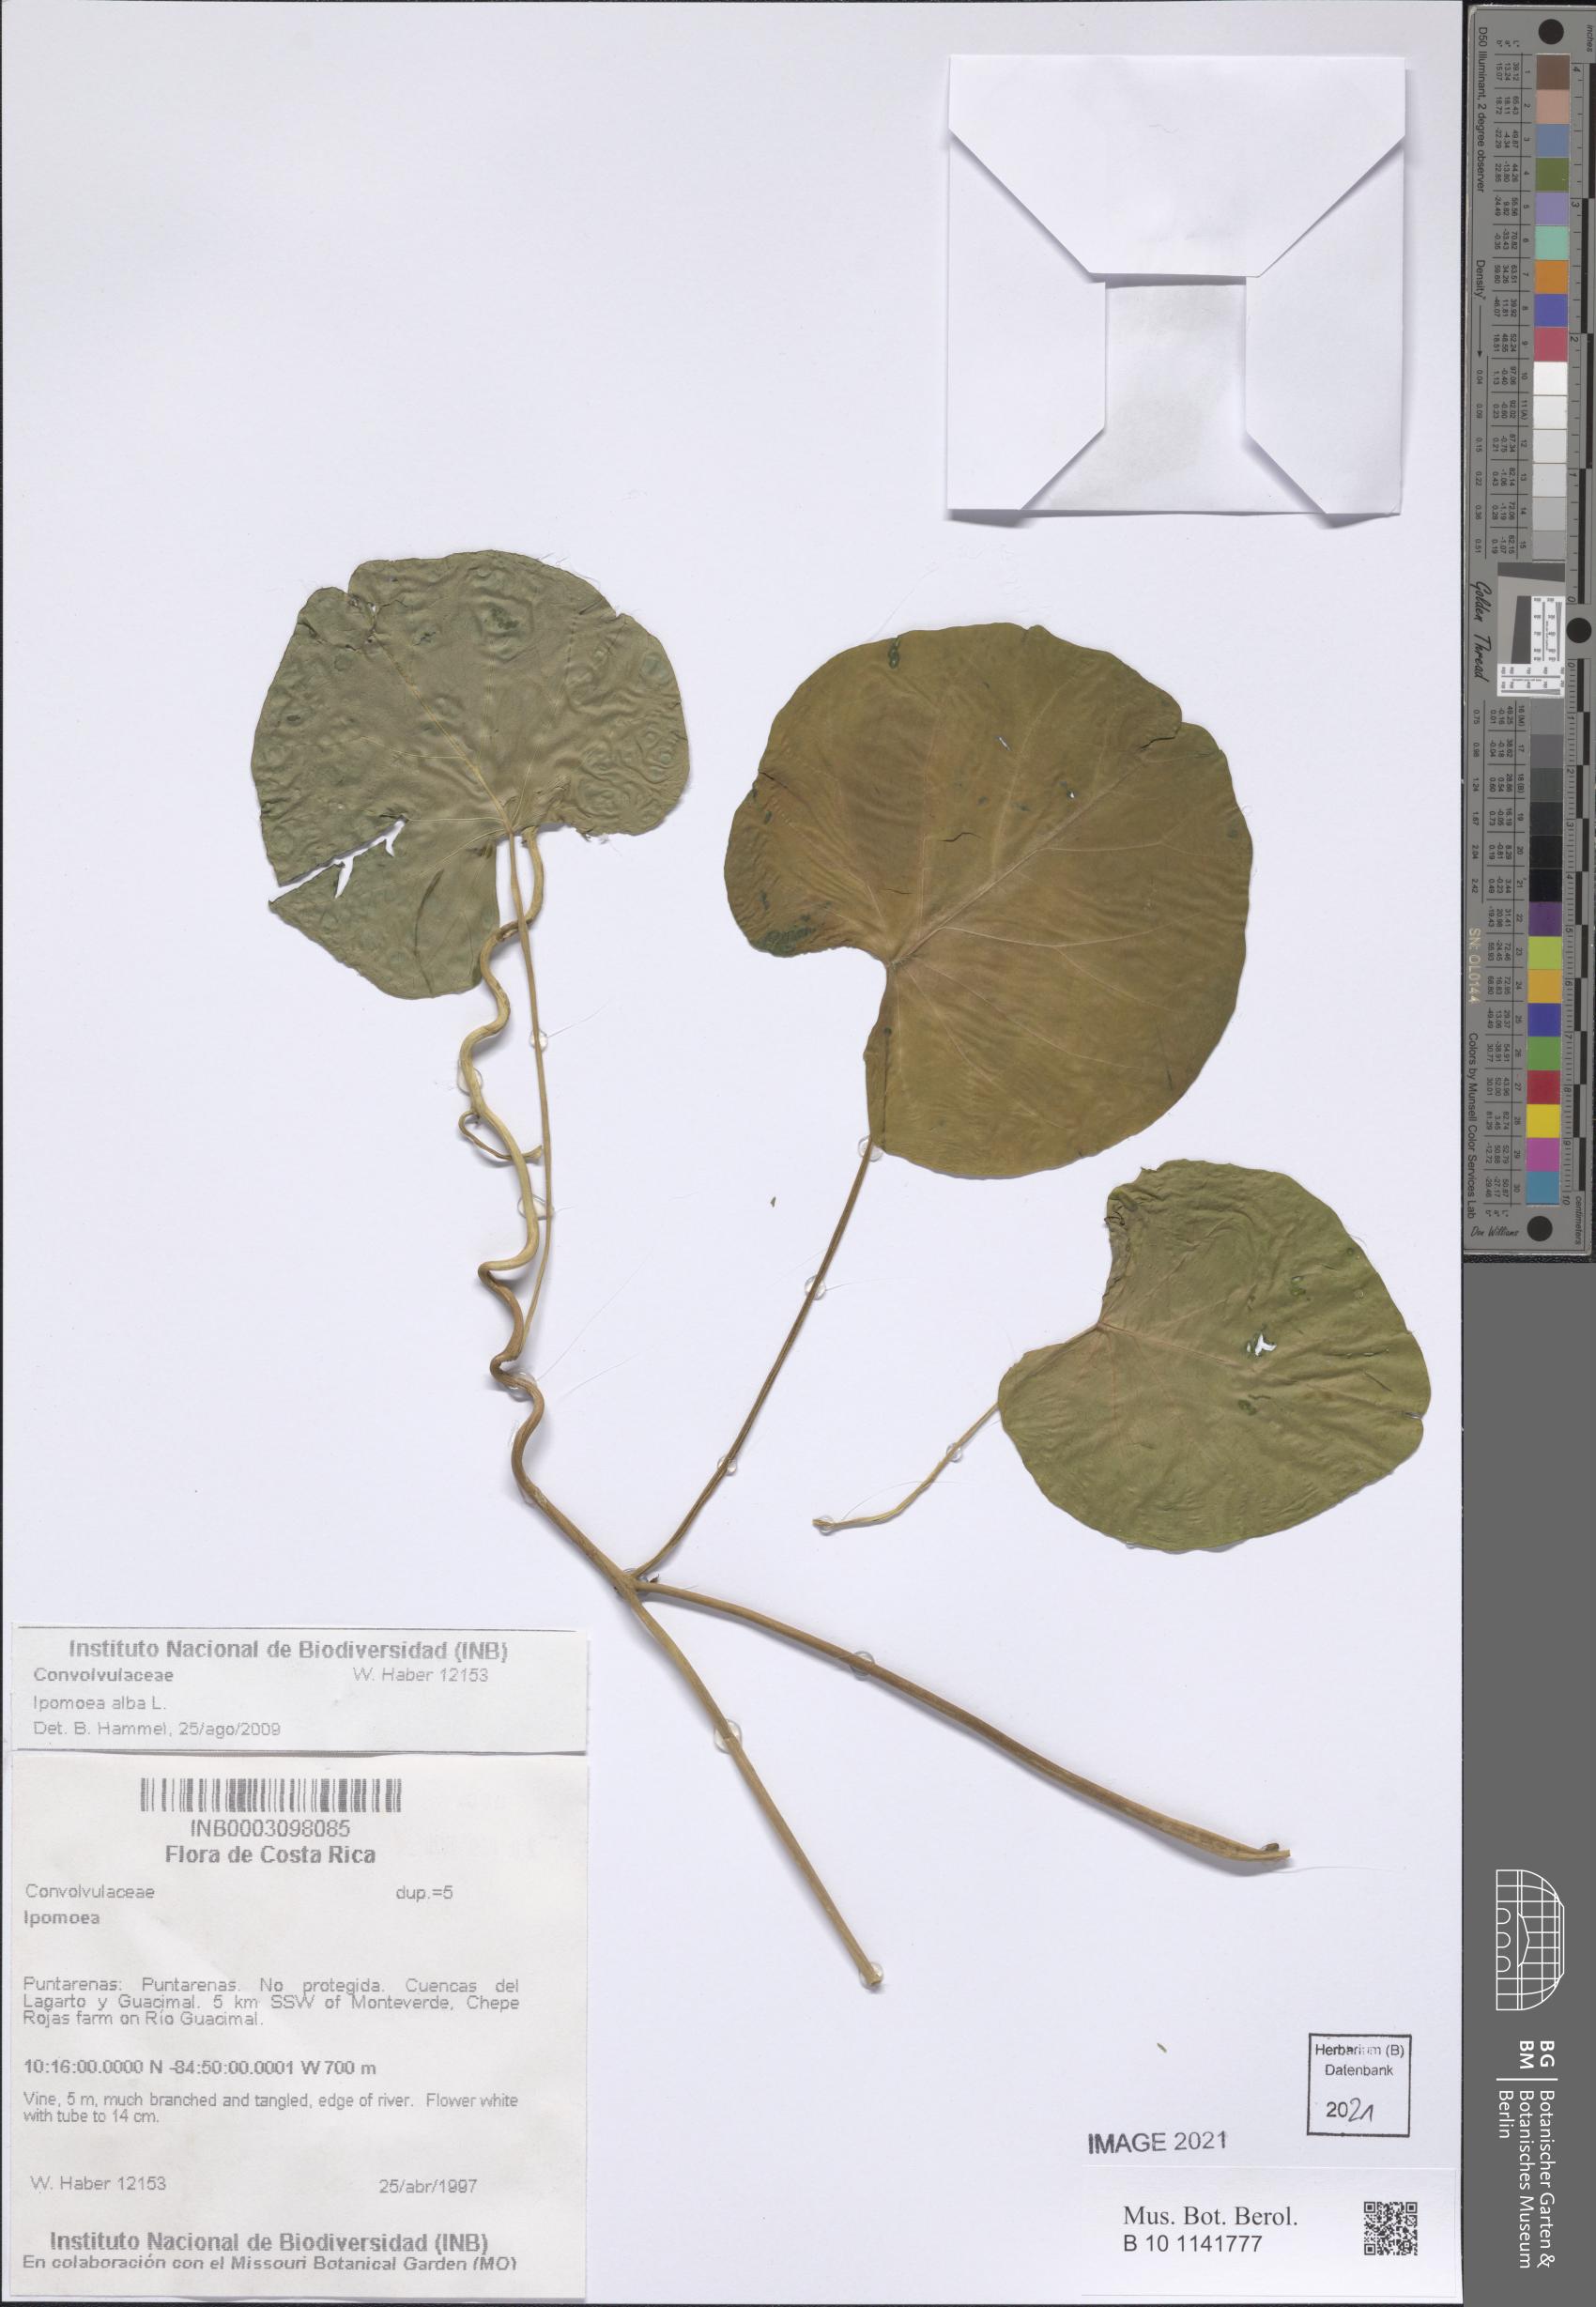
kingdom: Plantae
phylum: Tracheophyta
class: Magnoliopsida
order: Solanales
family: Convolvulaceae
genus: Ipomoea
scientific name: Ipomoea alba
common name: Moonflower
